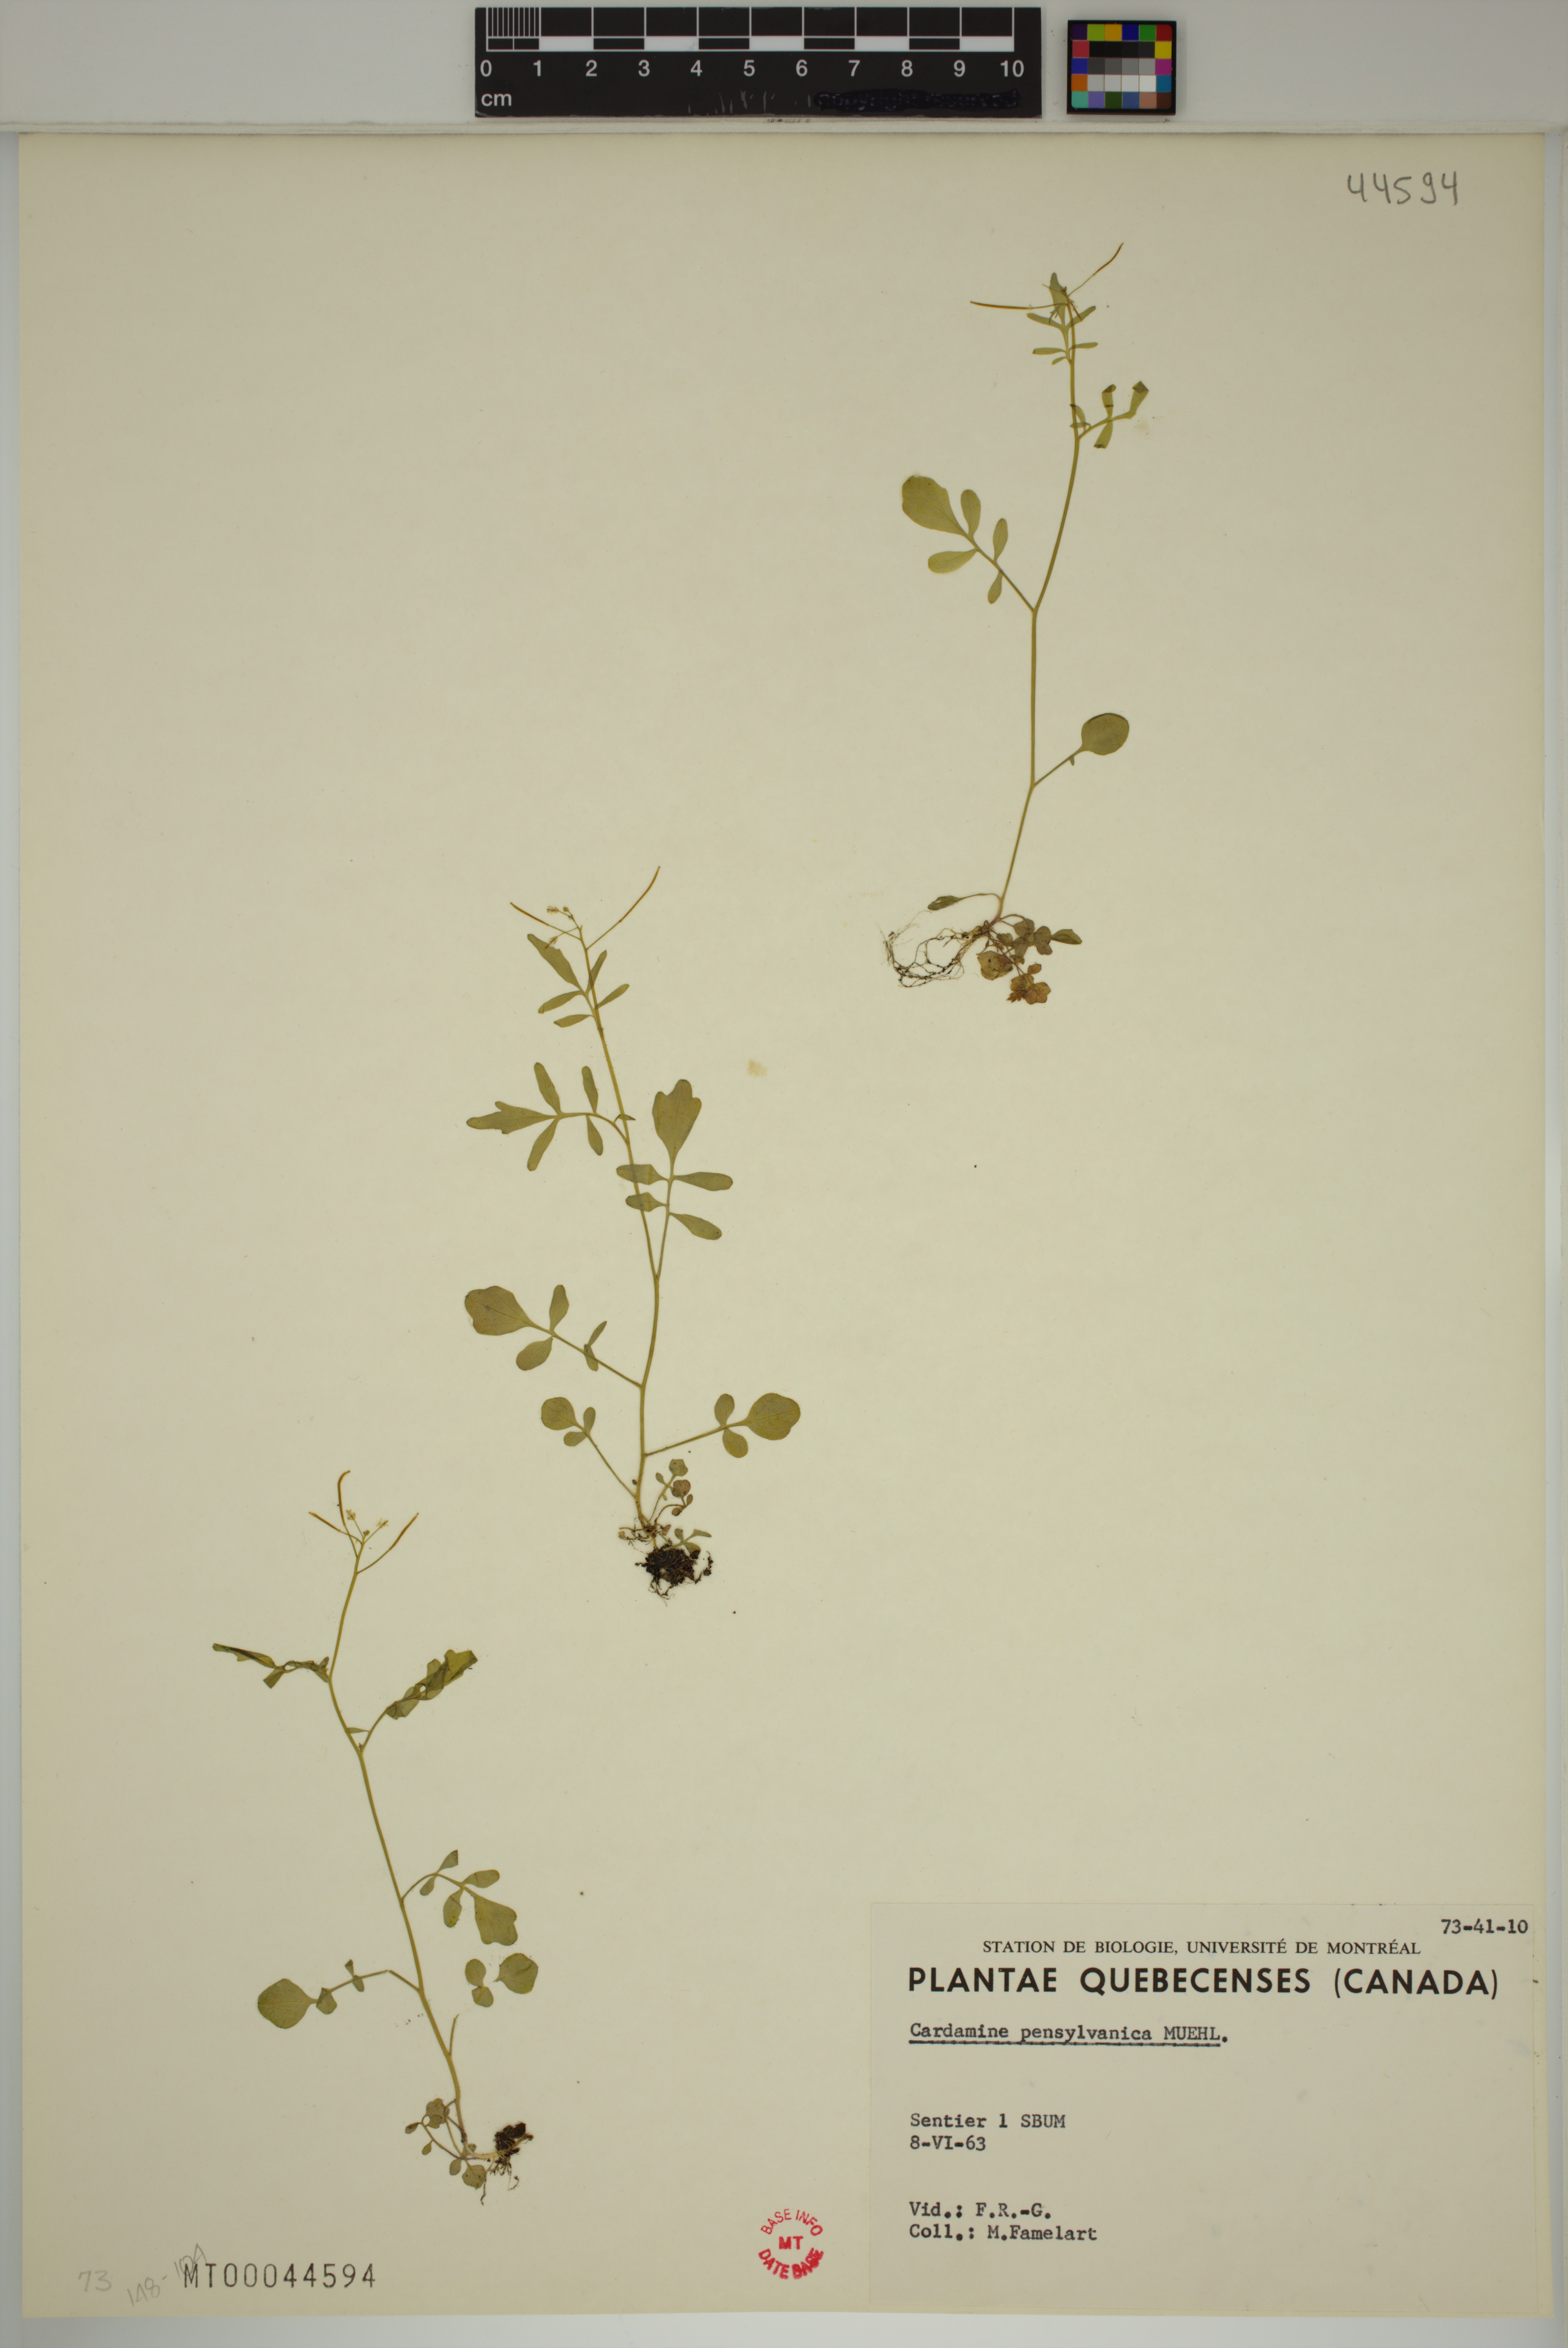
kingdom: Plantae
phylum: Tracheophyta
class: Magnoliopsida
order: Brassicales
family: Brassicaceae
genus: Cardamine
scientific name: Cardamine pensylvanica
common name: Pennsylvania bittercress
